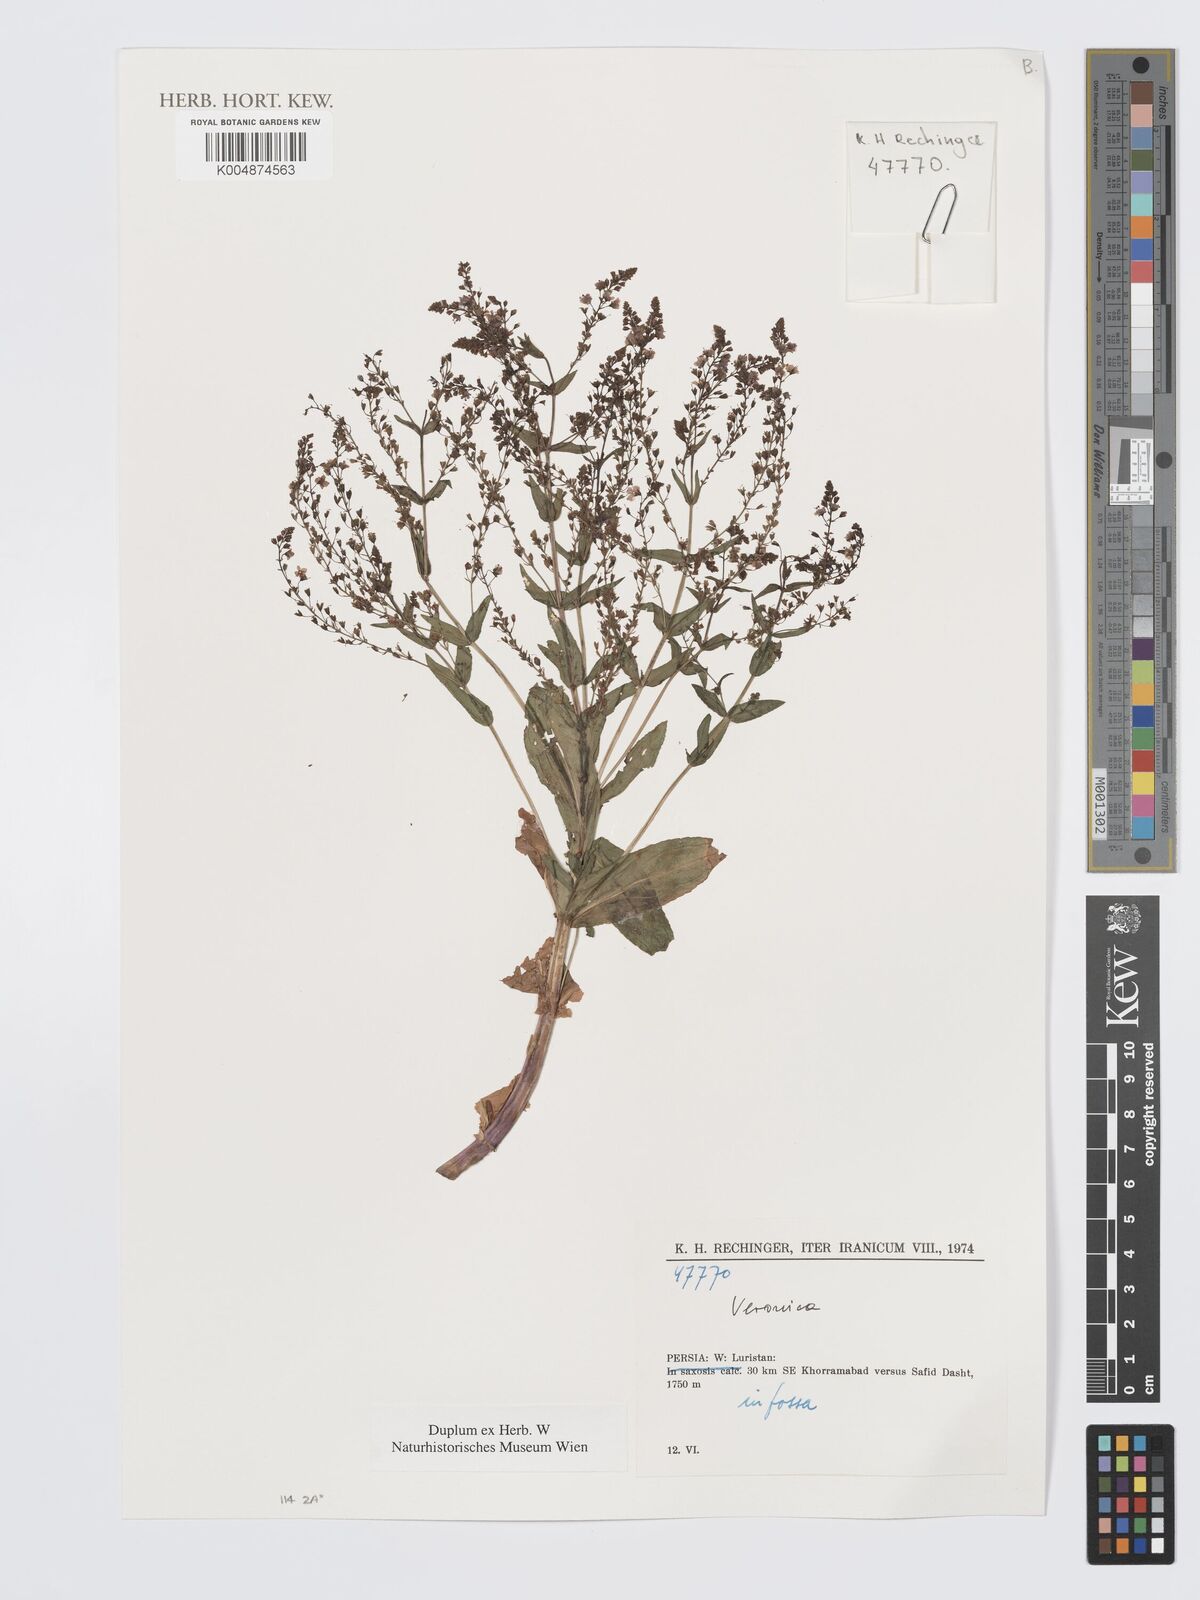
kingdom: Plantae
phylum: Tracheophyta
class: Magnoliopsida
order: Lamiales
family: Plantaginaceae
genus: Veronica
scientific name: Veronica
